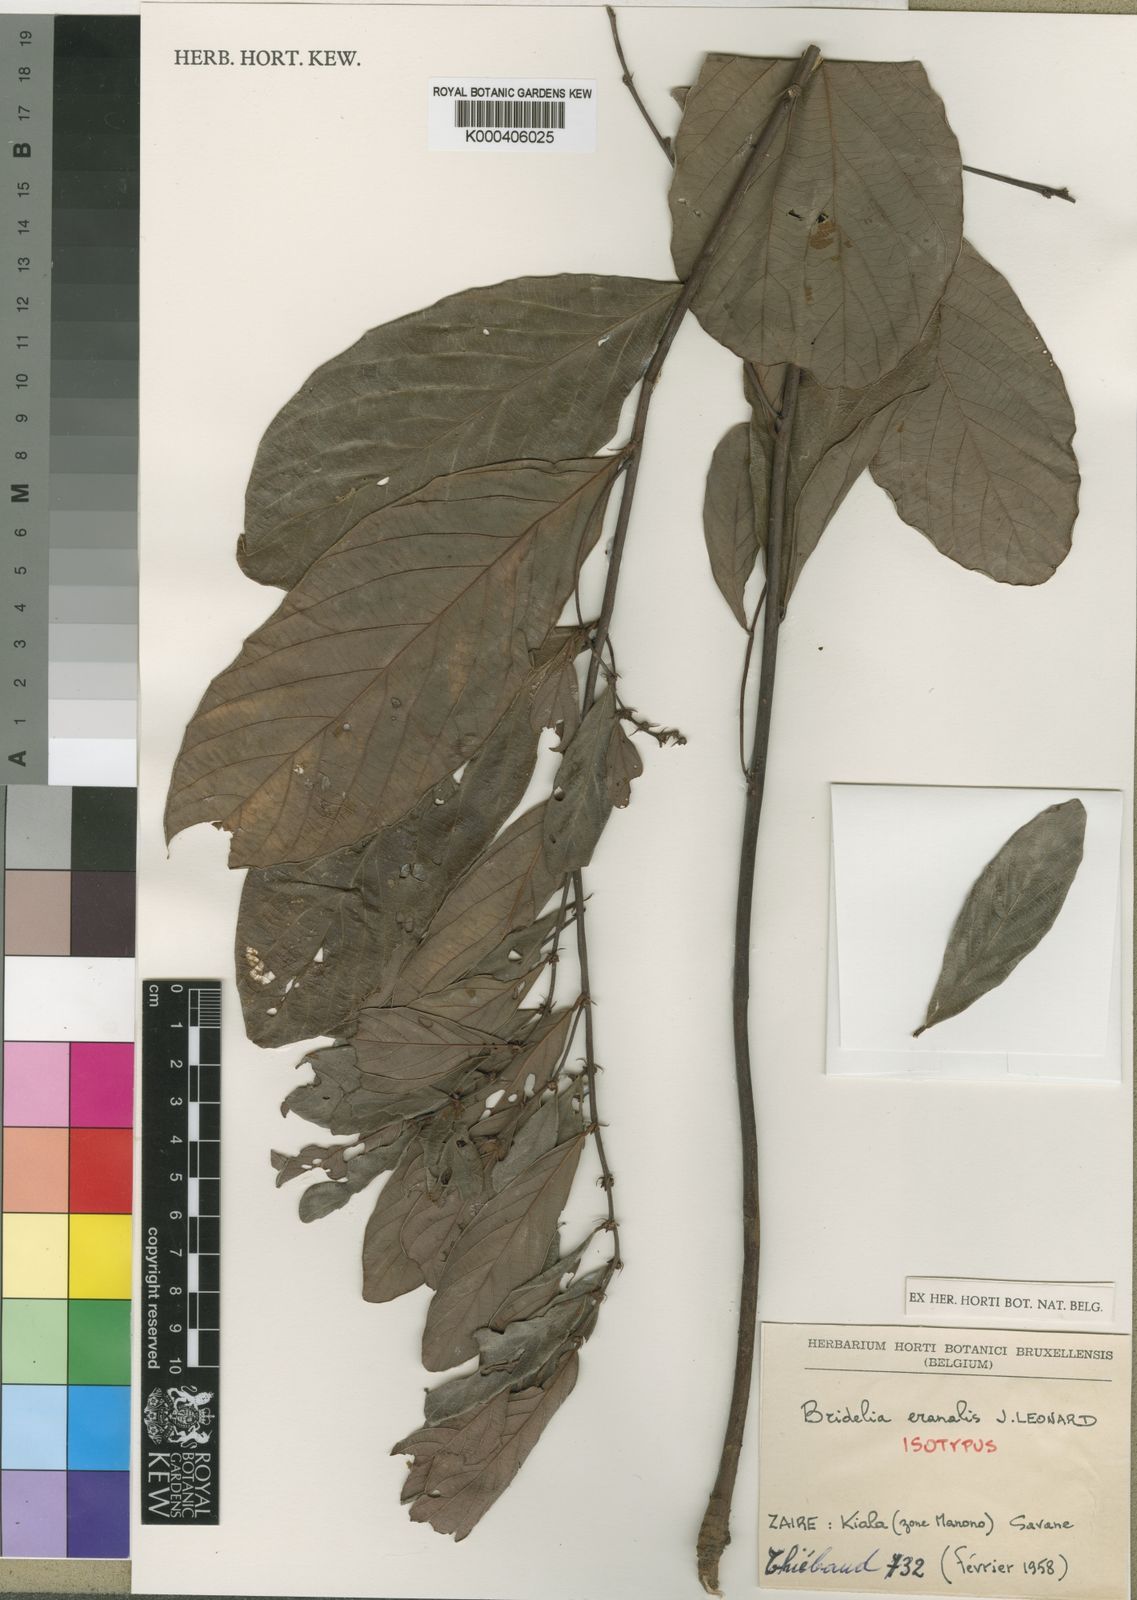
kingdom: Plantae
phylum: Tracheophyta
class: Magnoliopsida
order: Malpighiales
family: Phyllanthaceae
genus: Bridelia
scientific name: Bridelia
